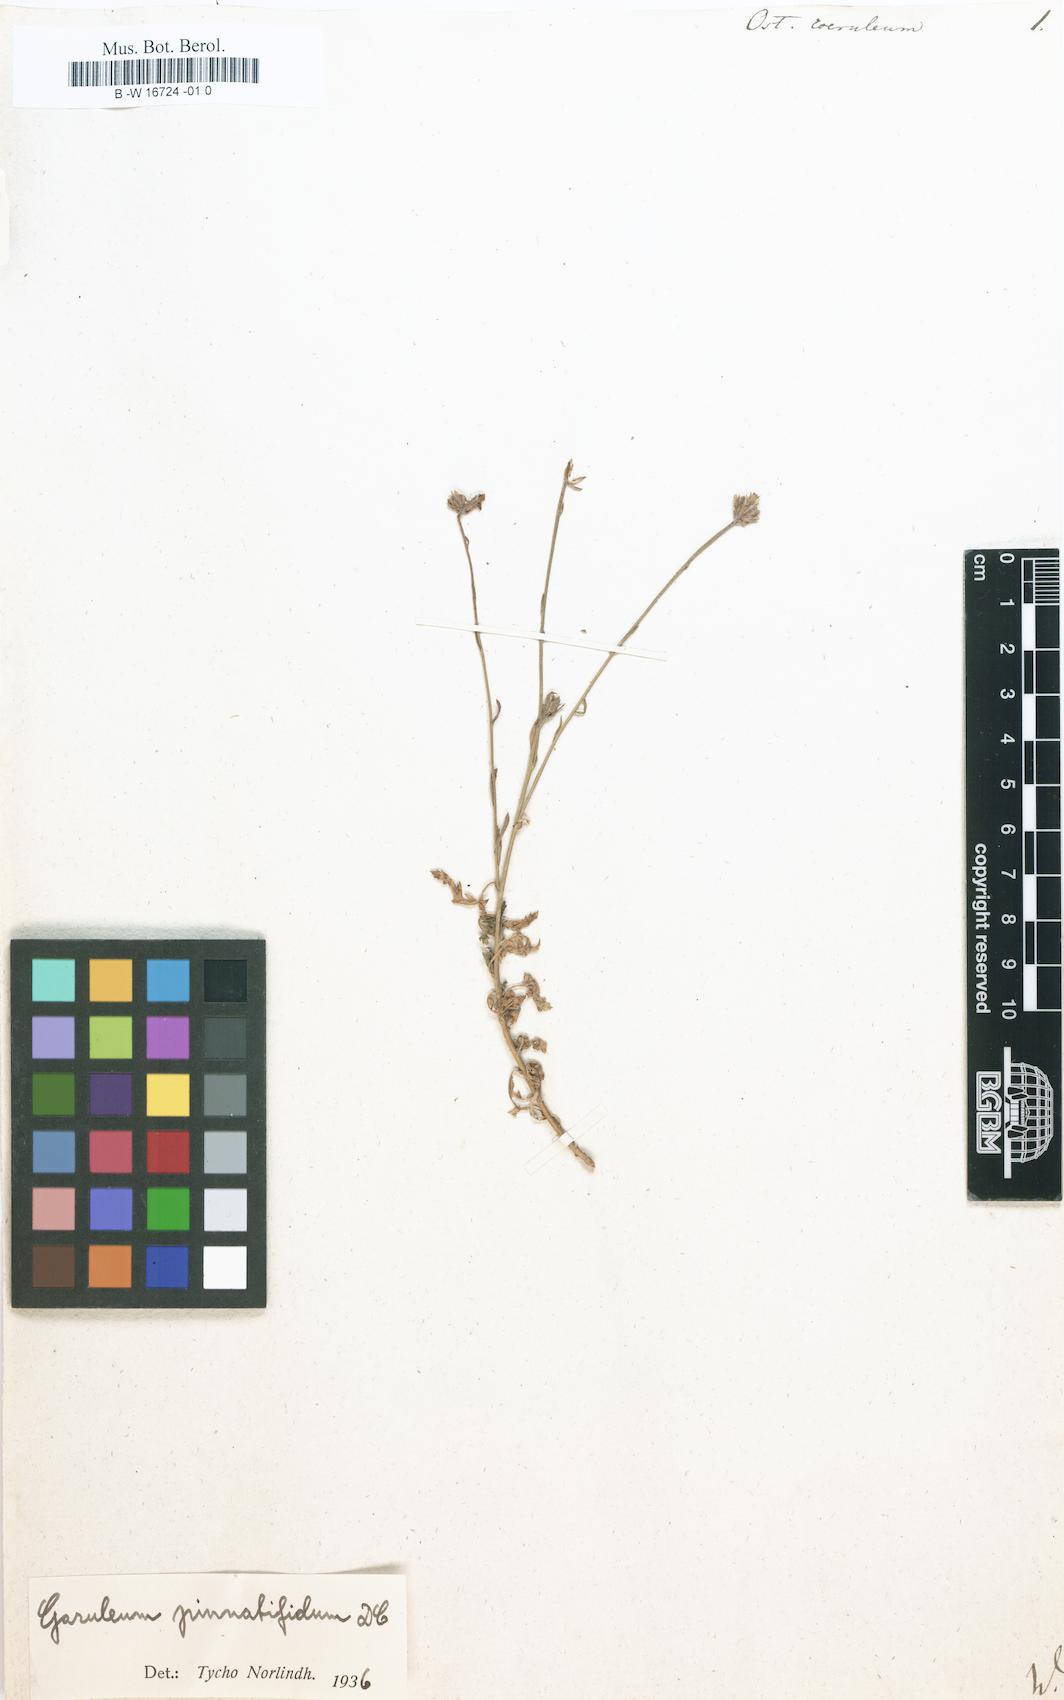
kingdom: Plantae
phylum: Tracheophyta
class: Magnoliopsida
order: Asterales
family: Asteraceae
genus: Osteospermum
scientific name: Osteospermum coeruleum
